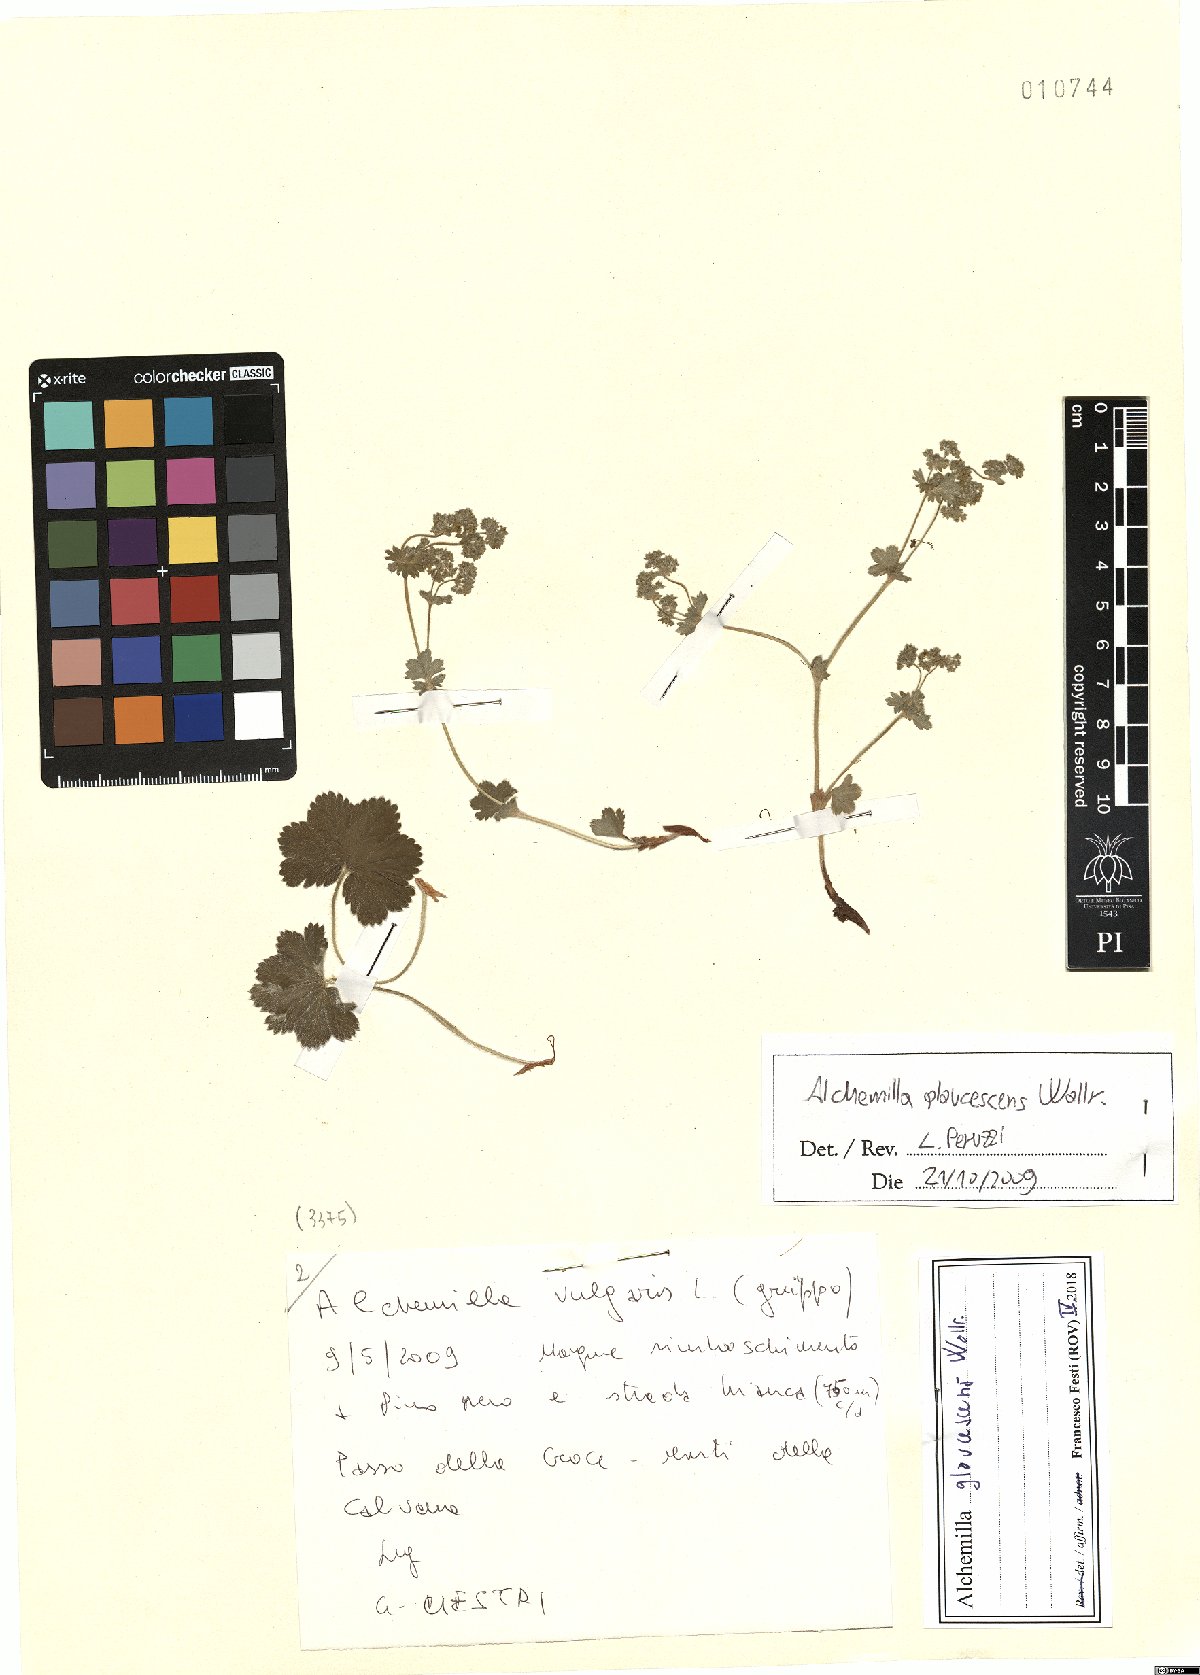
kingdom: Plantae
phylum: Tracheophyta
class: Magnoliopsida
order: Rosales
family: Rosaceae
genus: Alchemilla
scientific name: Alchemilla glaucescens
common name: Silky lady's mantle
